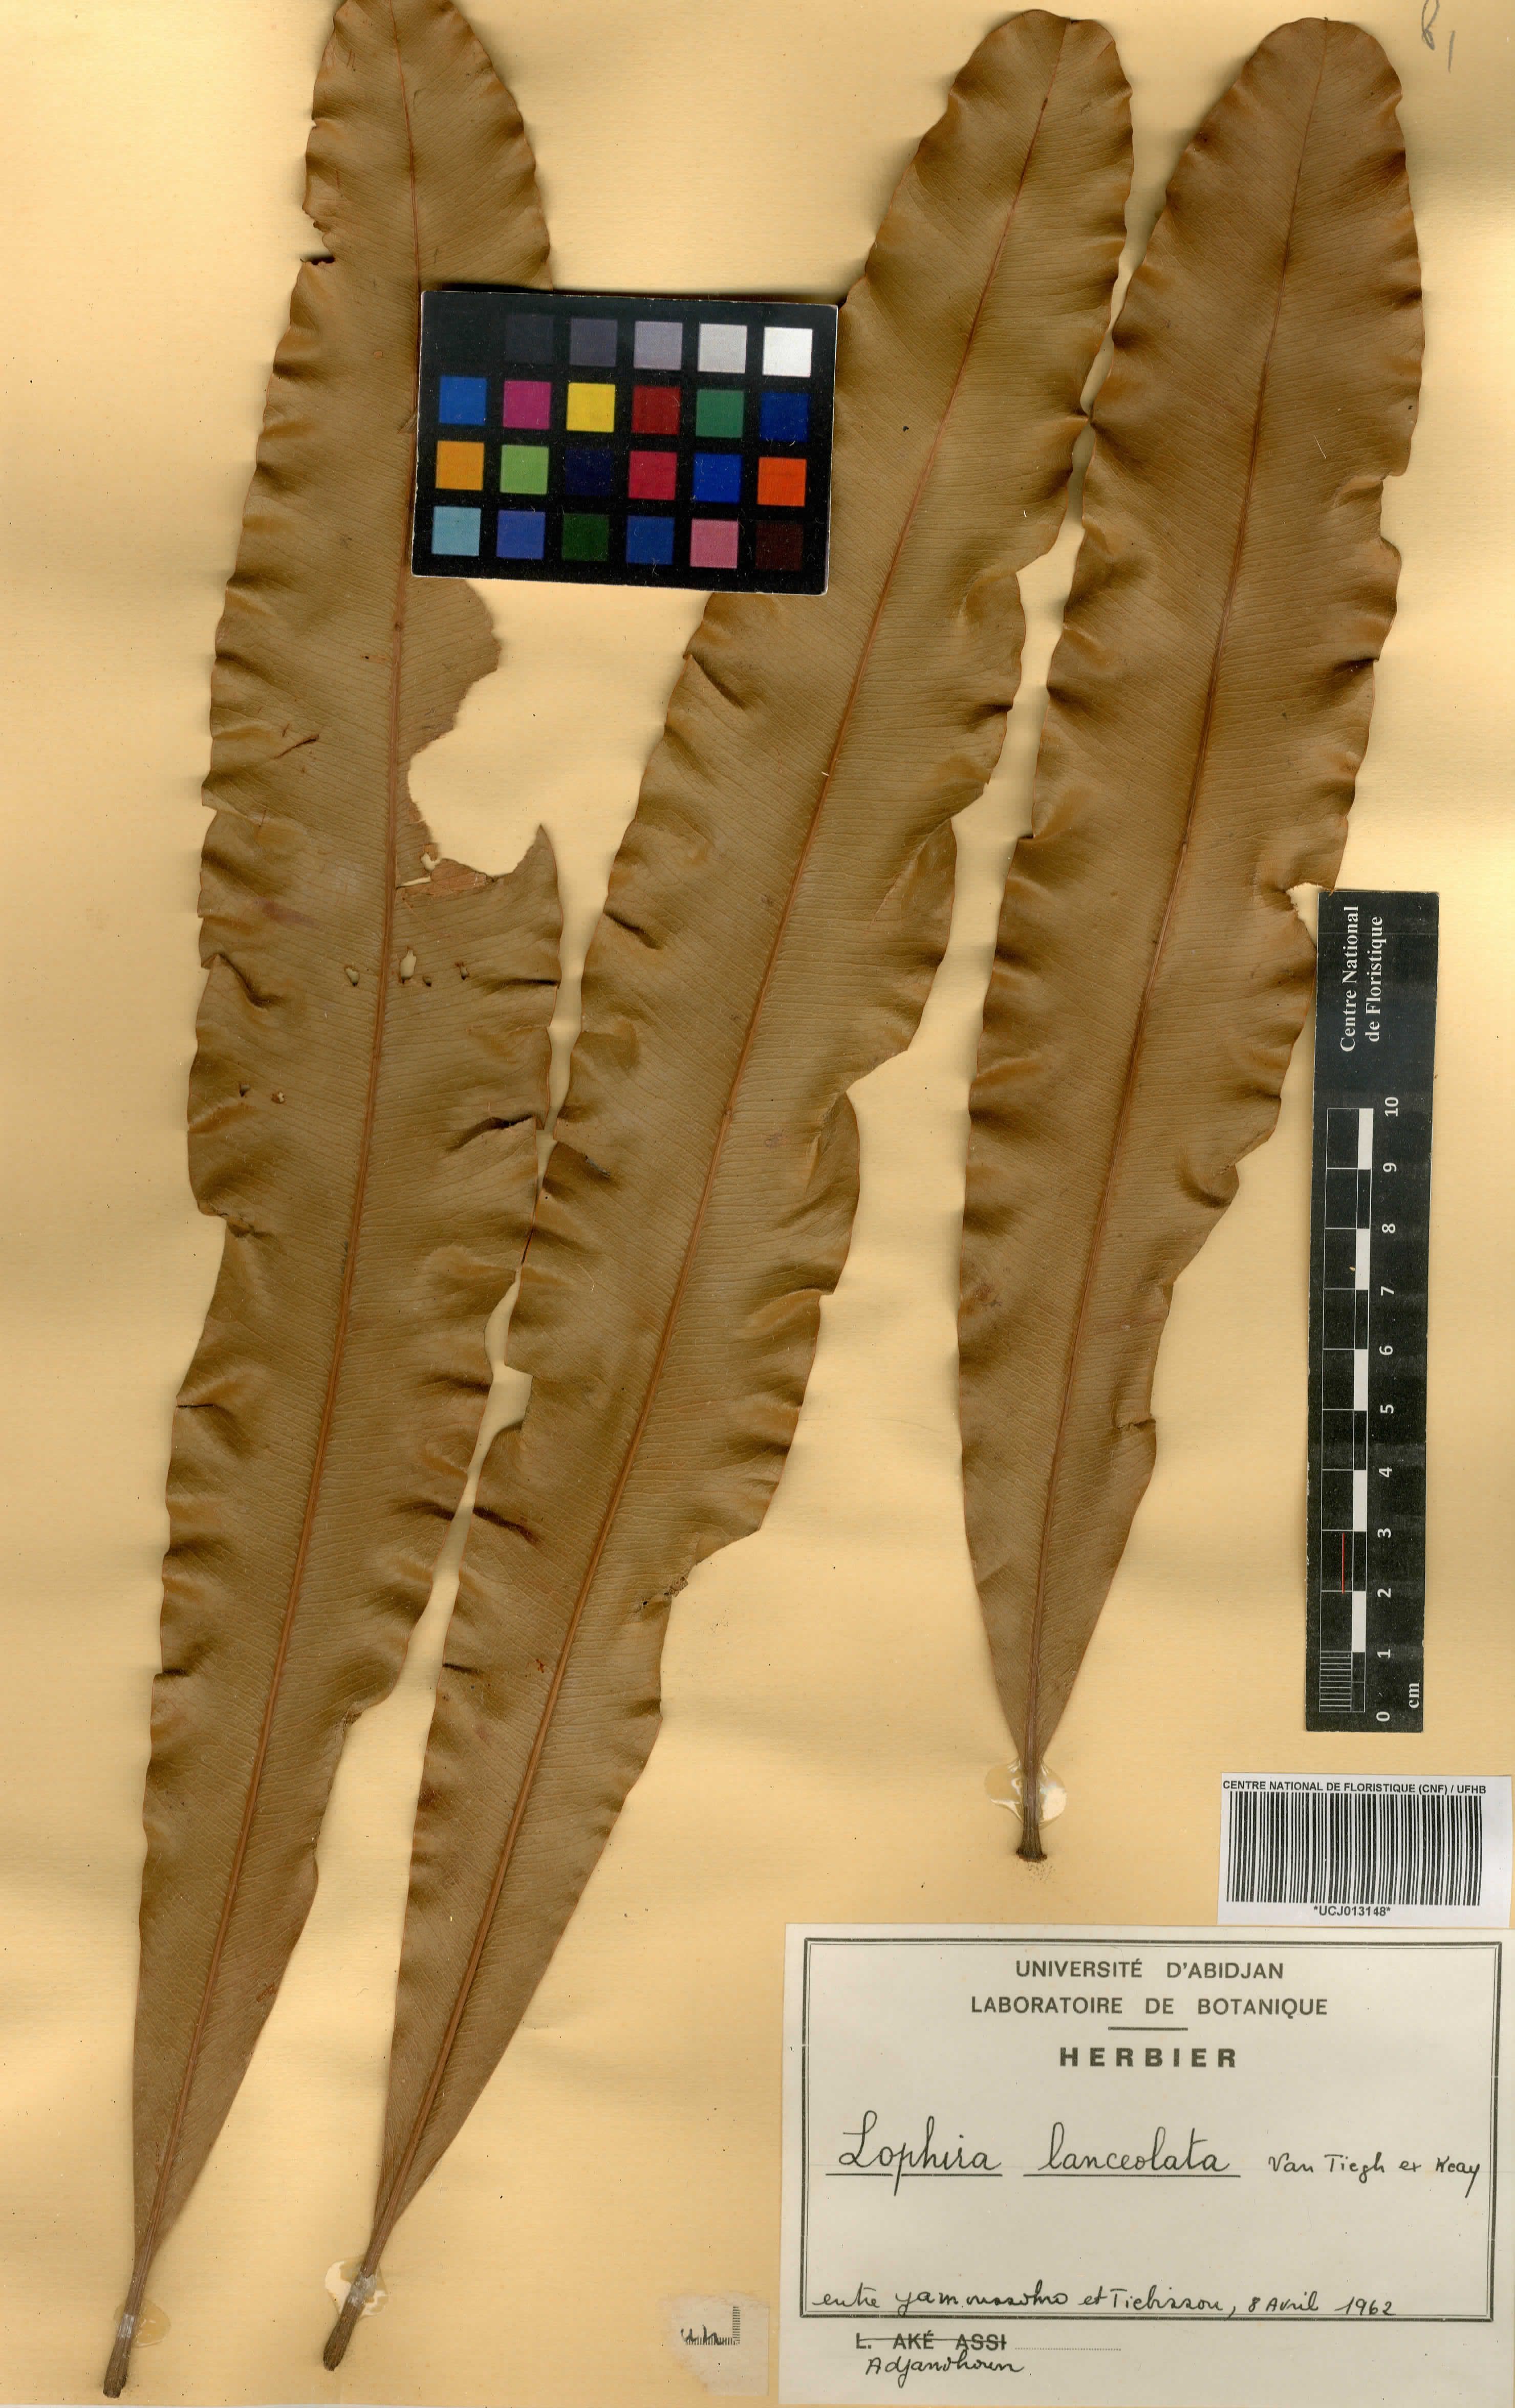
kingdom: Plantae
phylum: Tracheophyta
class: Magnoliopsida
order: Malpighiales
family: Ochnaceae
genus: Lophira
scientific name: Lophira lanceolata
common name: Dwarf red ironwood
